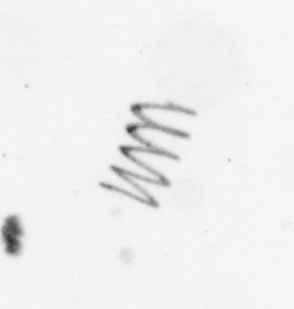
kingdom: Chromista
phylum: Ochrophyta
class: Bacillariophyceae
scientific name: Bacillariophyceae
